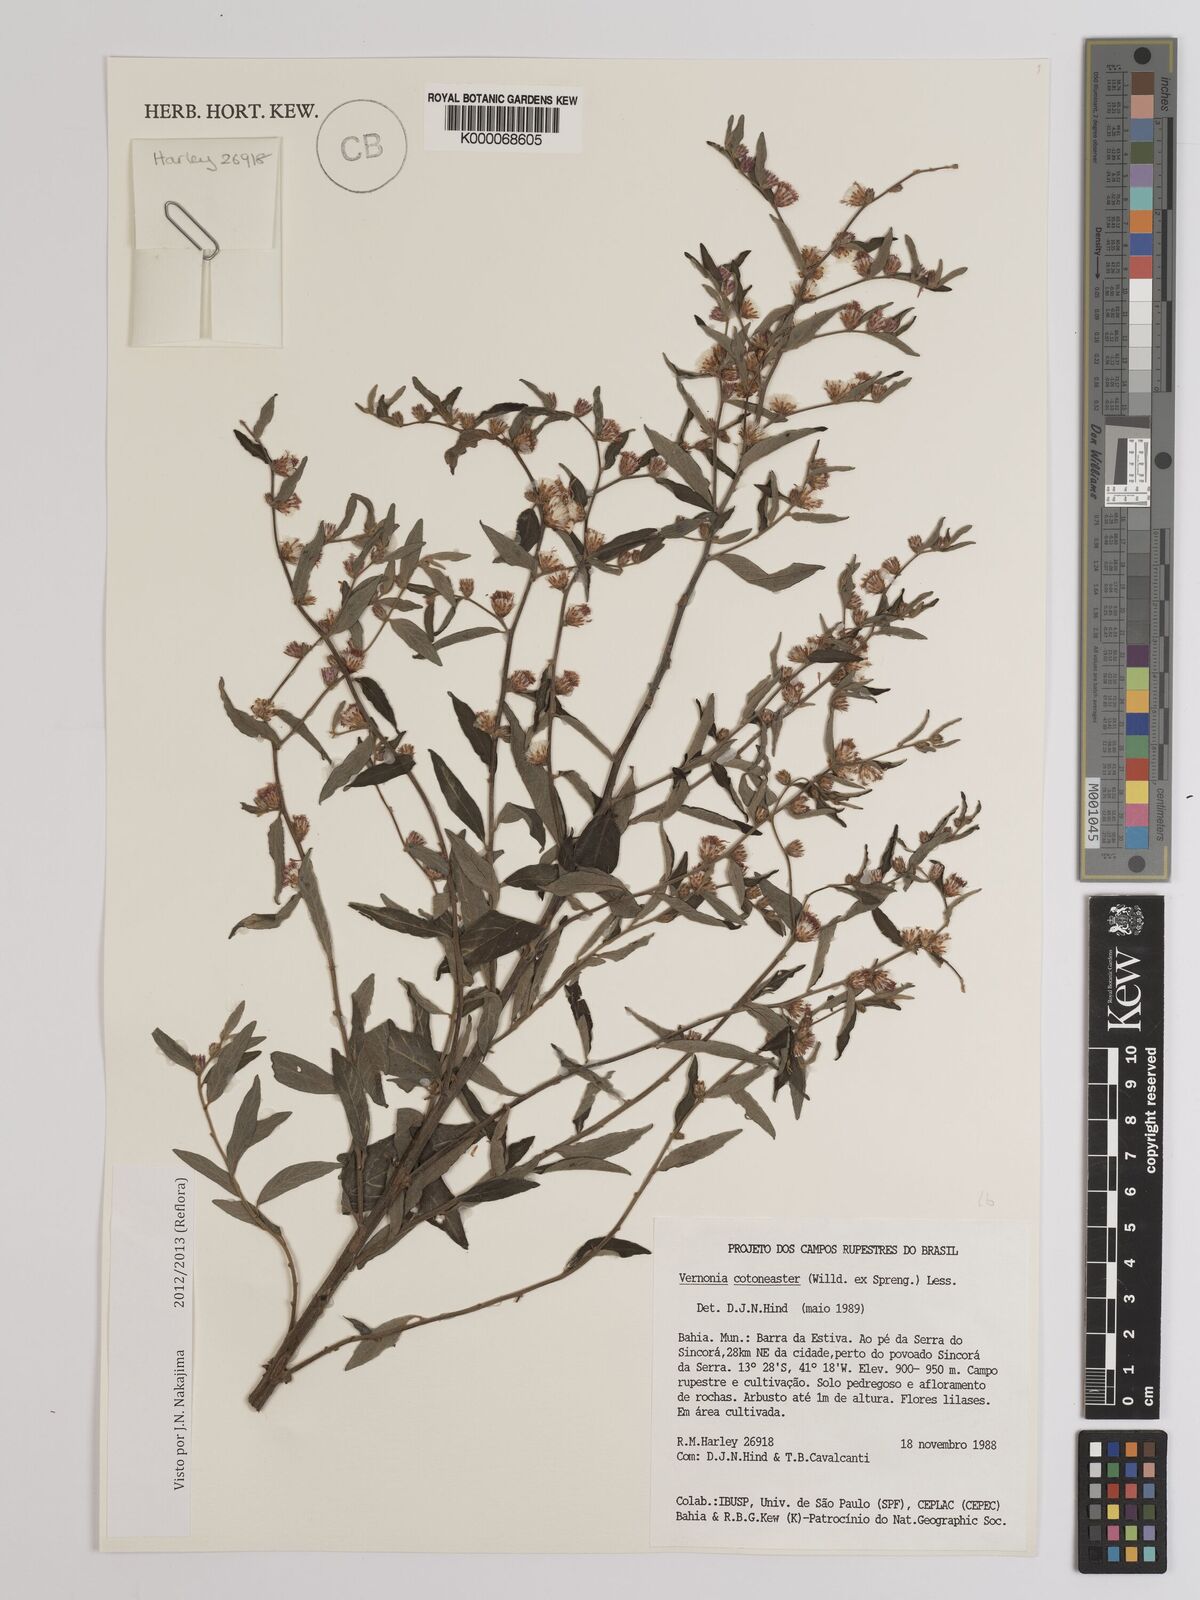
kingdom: Plantae
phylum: Tracheophyta
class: Magnoliopsida
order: Asterales
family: Asteraceae
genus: Lepidaploa
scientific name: Lepidaploa cotoneaster
